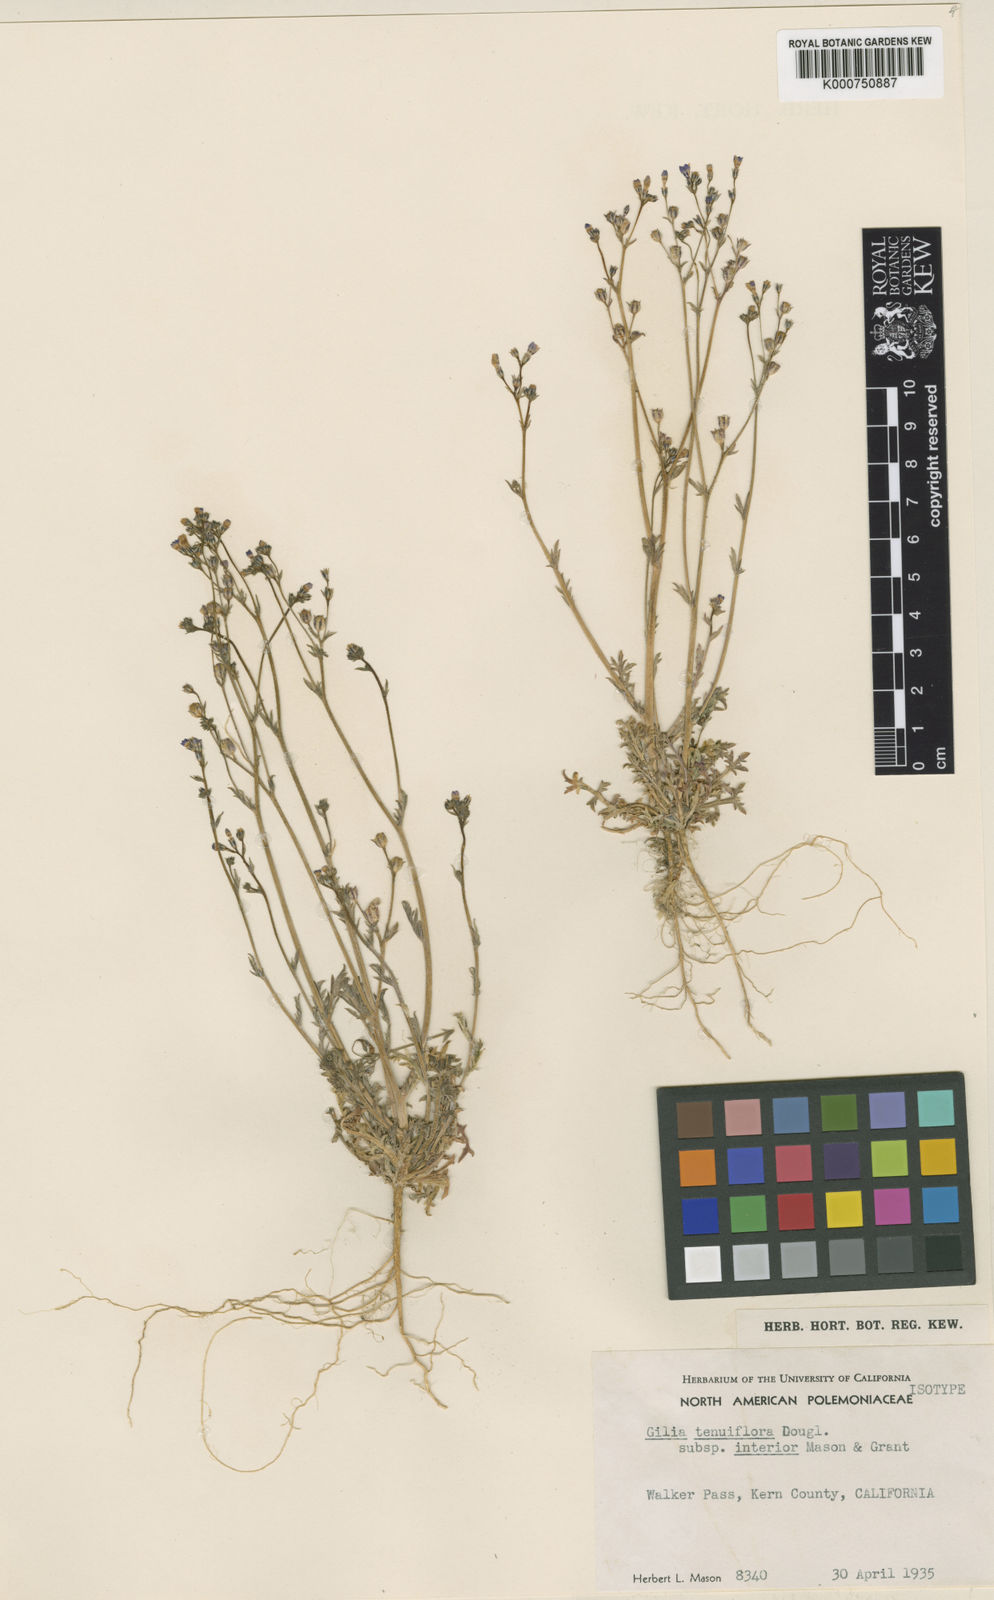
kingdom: Plantae
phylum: Tracheophyta
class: Magnoliopsida
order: Ericales
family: Polemoniaceae
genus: Gilia
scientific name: Gilia interior
